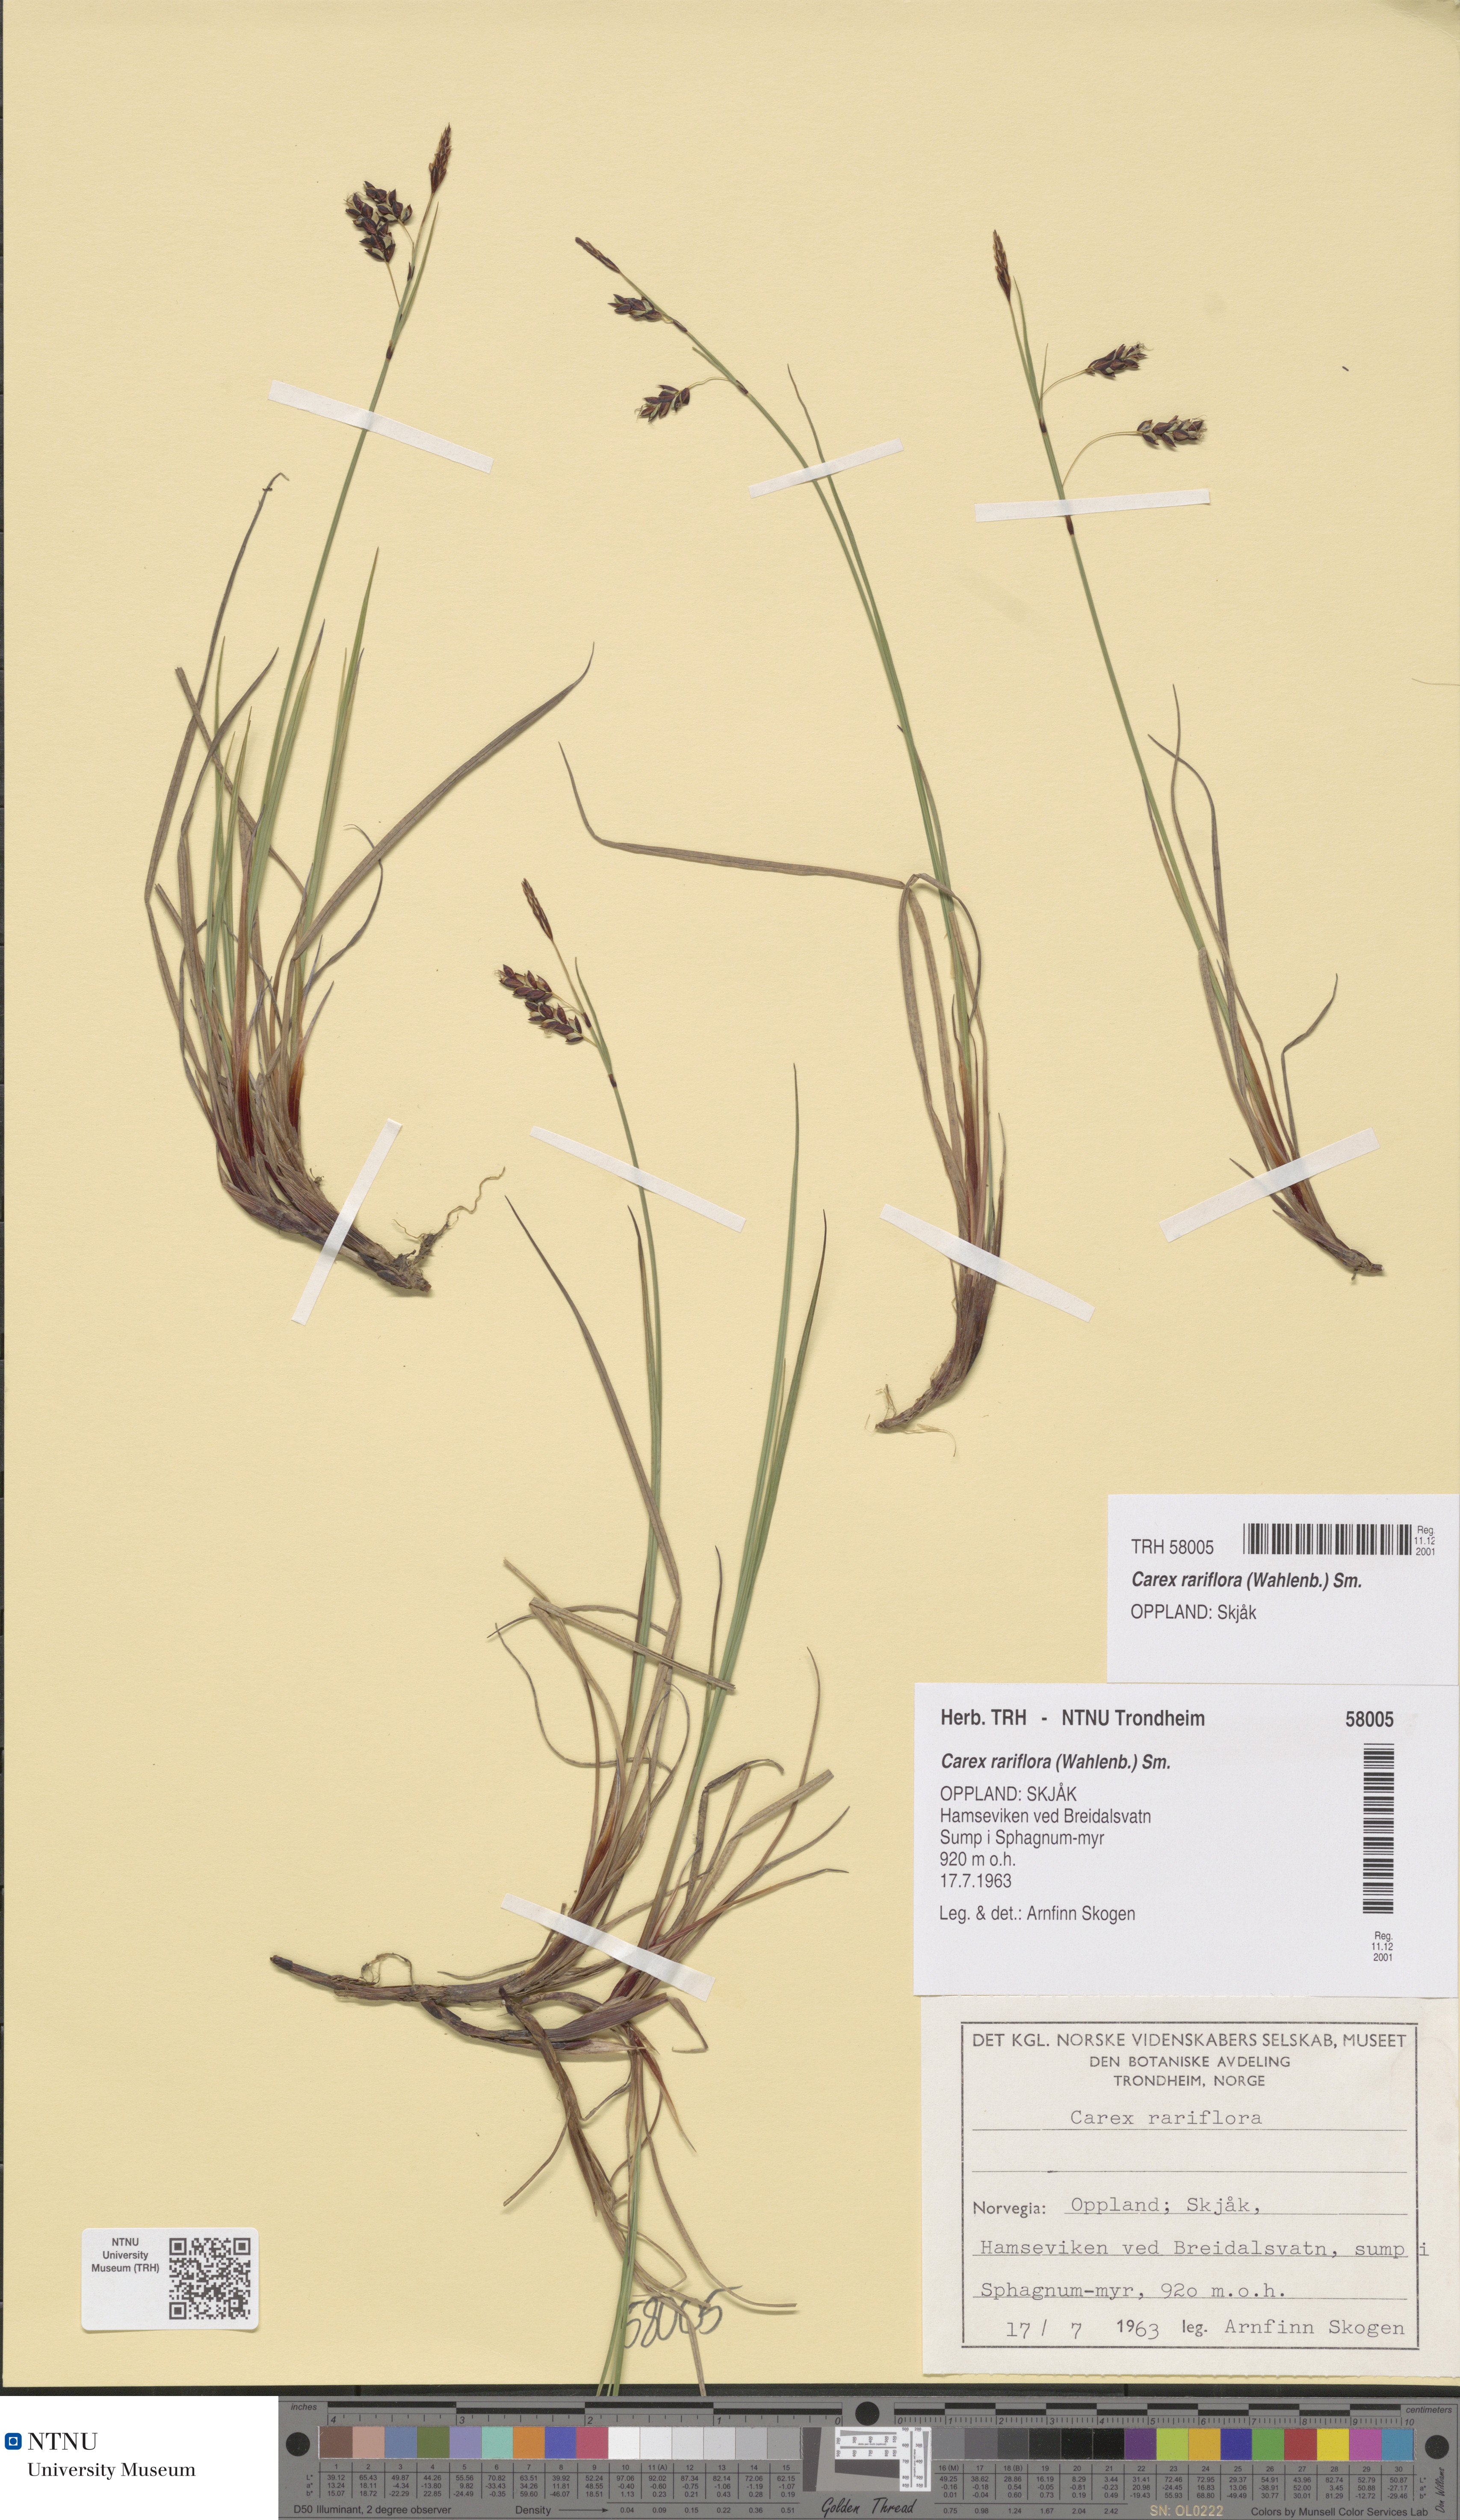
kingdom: Plantae
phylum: Tracheophyta
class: Liliopsida
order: Poales
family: Cyperaceae
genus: Carex
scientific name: Carex rariflora
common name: Loose-flowered alpine sedge
